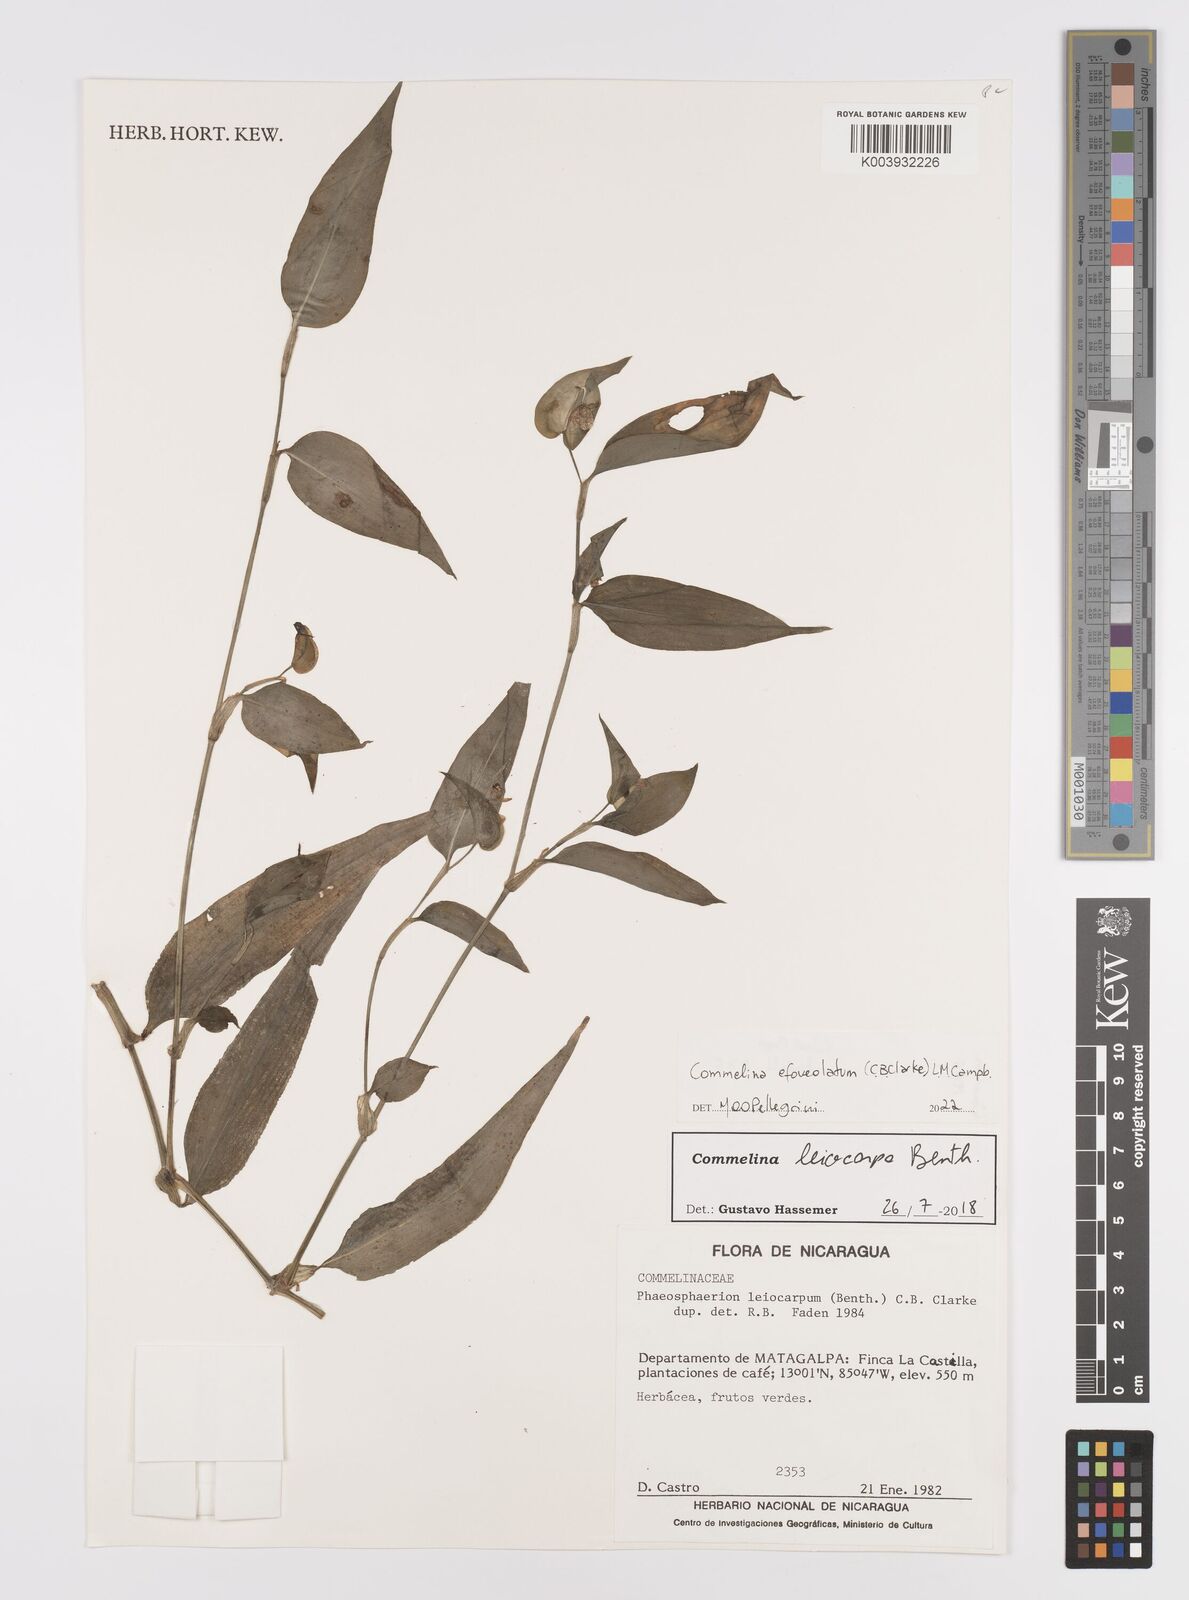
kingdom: Plantae
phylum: Tracheophyta
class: Liliopsida
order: Commelinales
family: Commelinaceae
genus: Commelina
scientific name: Commelina leiocarpa
